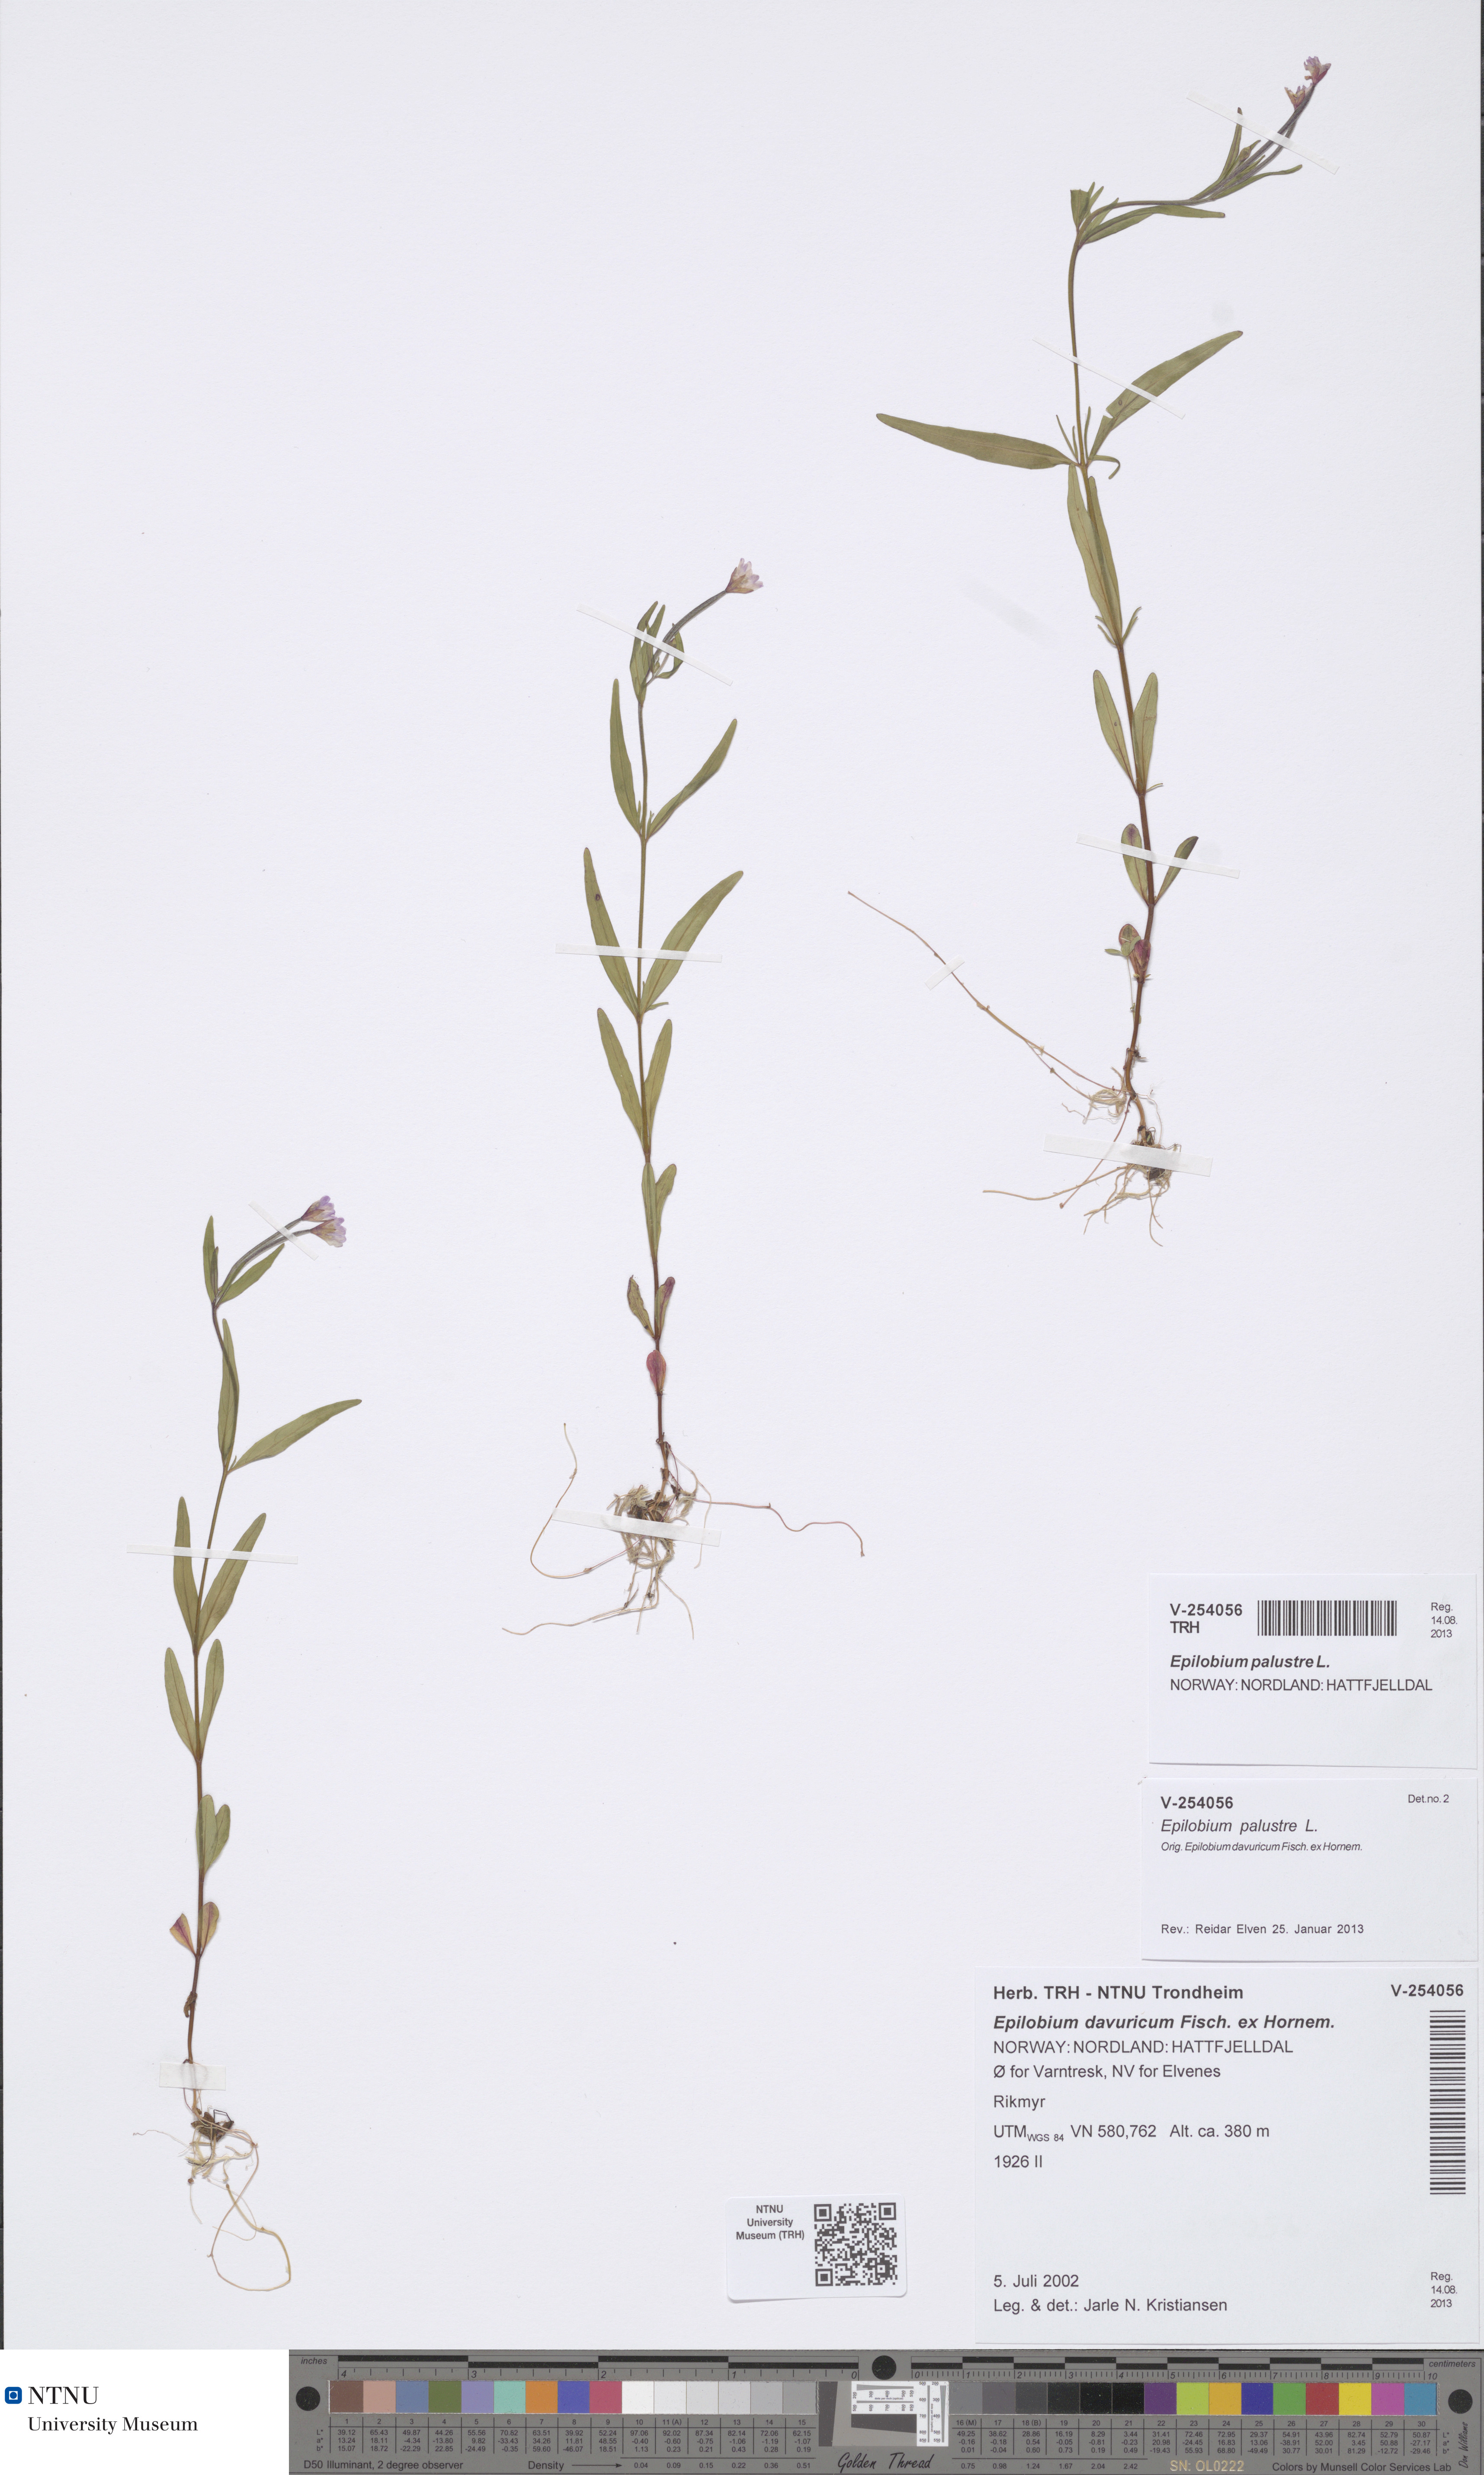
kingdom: Plantae
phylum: Tracheophyta
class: Magnoliopsida
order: Myrtales
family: Onagraceae
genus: Epilobium
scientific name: Epilobium palustre
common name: Marsh willowherb
